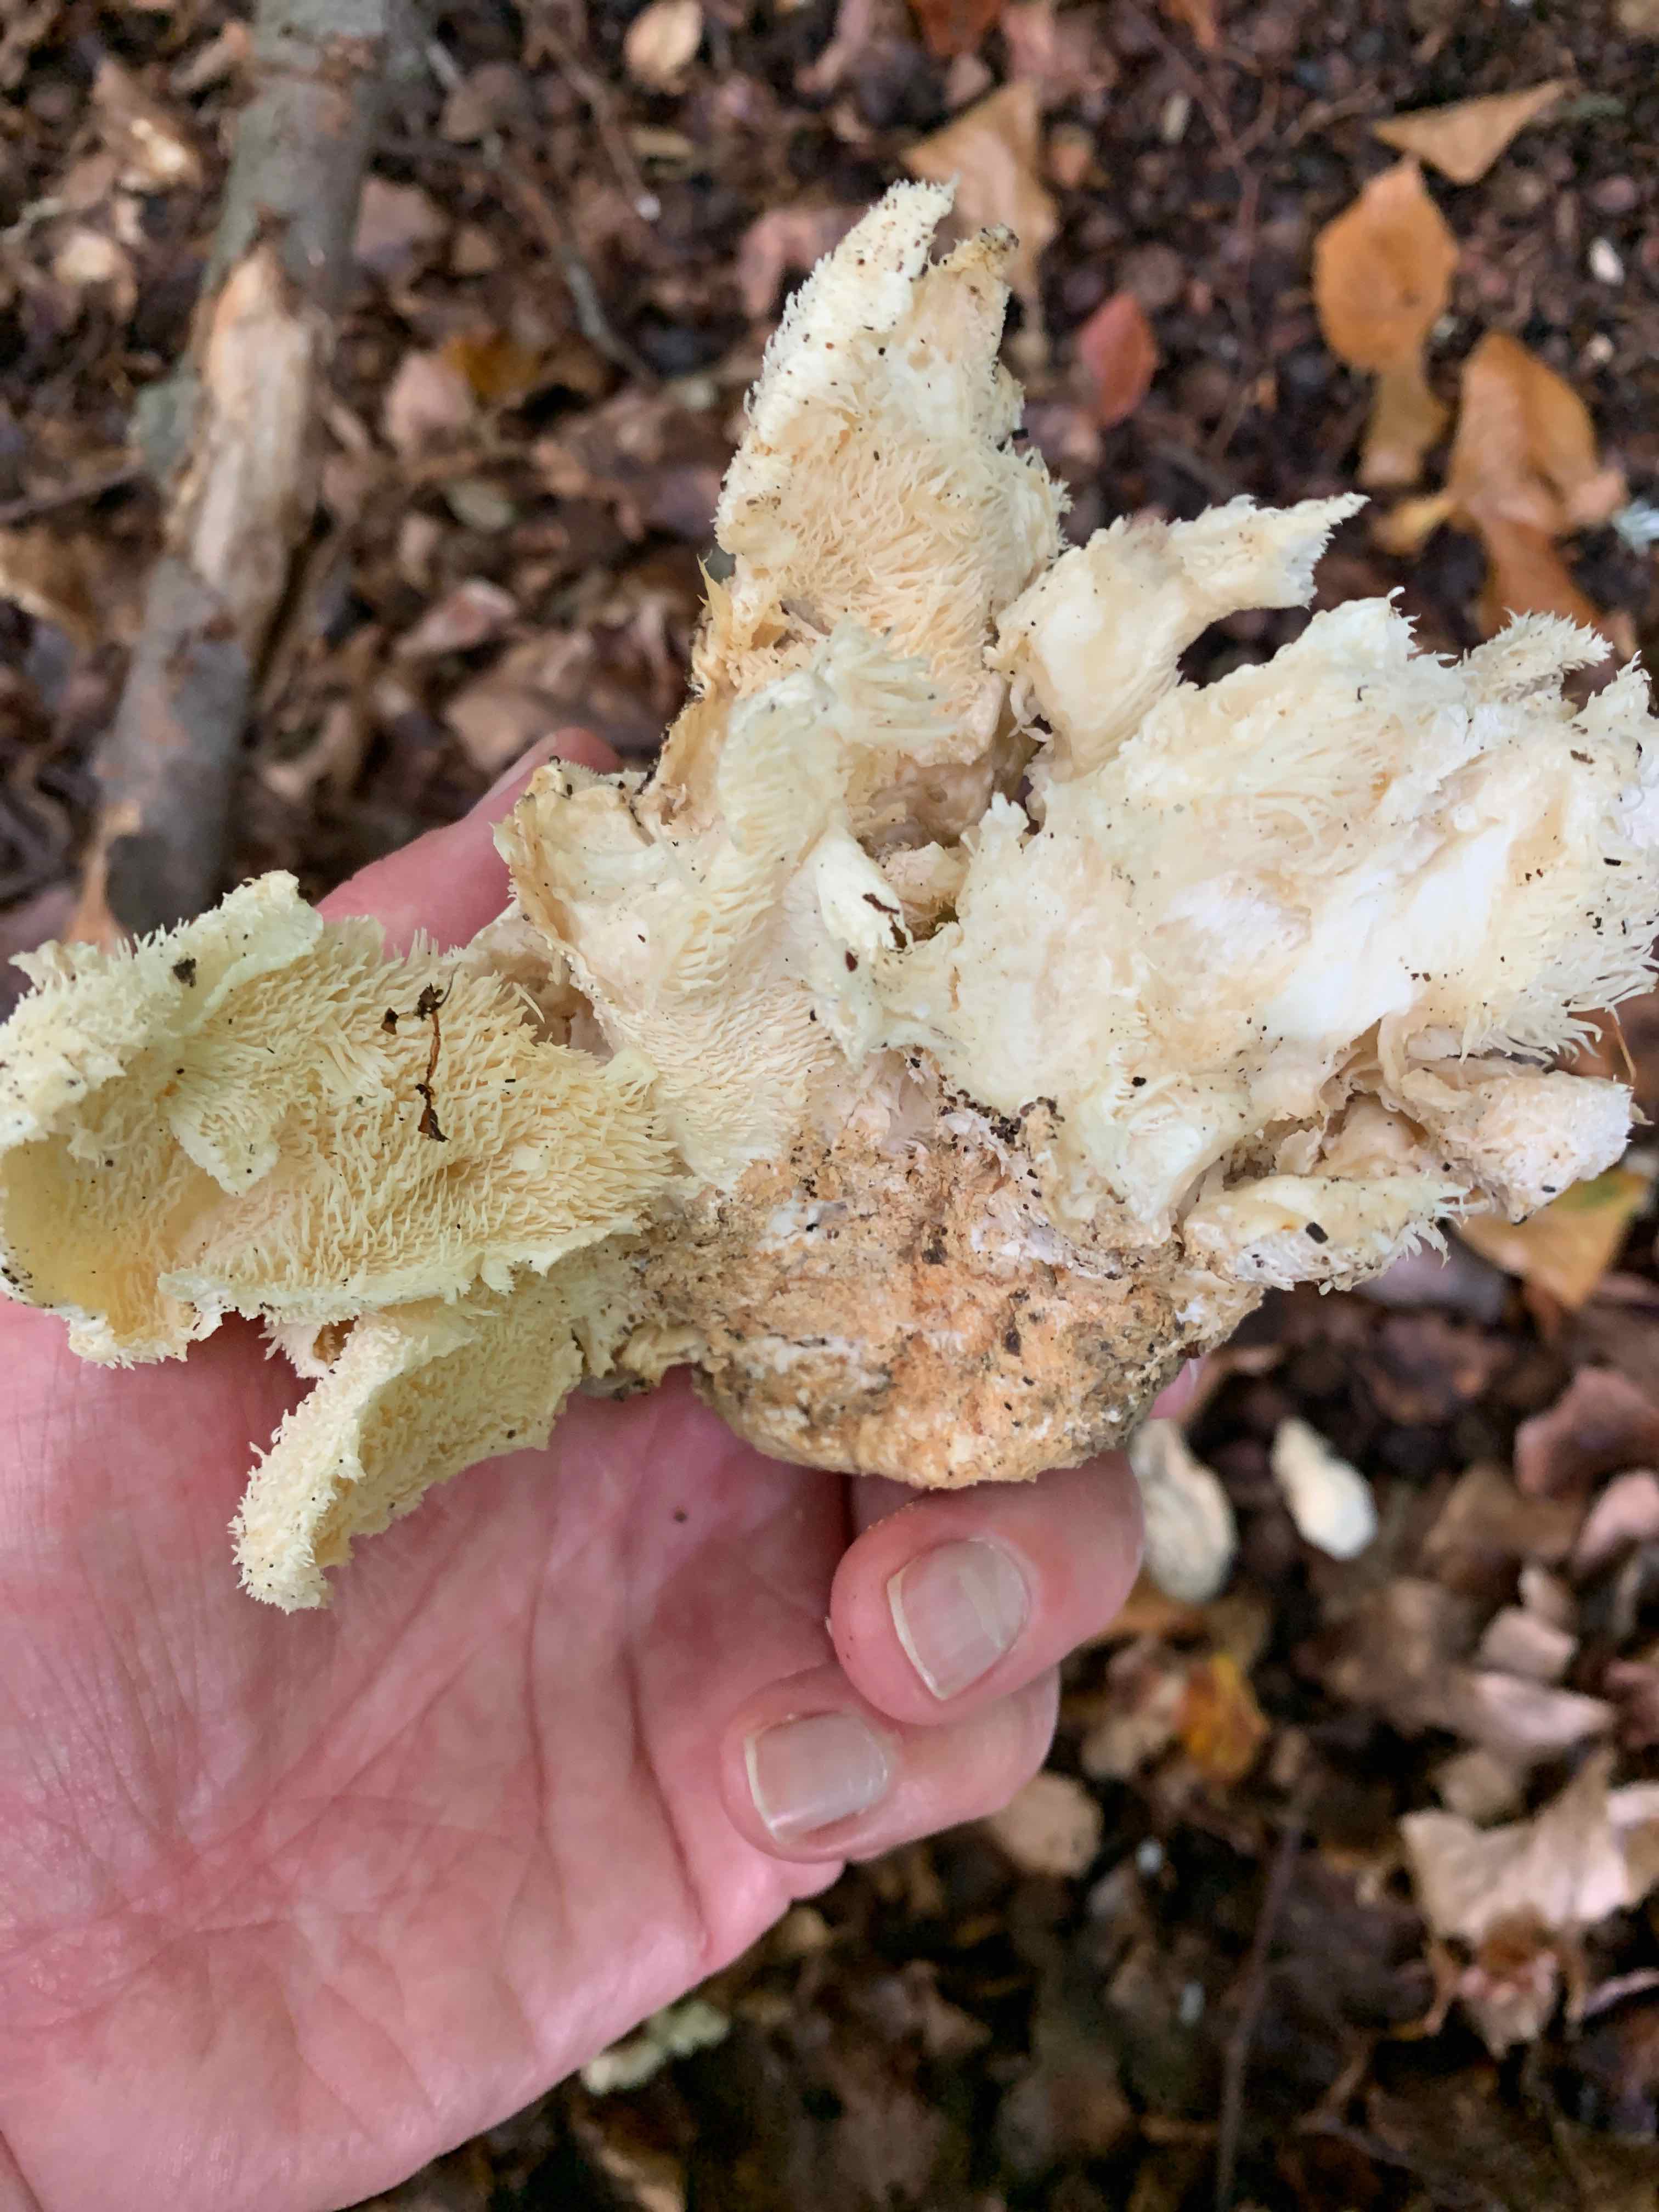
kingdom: Fungi
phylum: Basidiomycota
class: Agaricomycetes
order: Russulales
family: Hericiaceae
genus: Hericium
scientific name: Hericium cirrhatum
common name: børstepigsvamp
